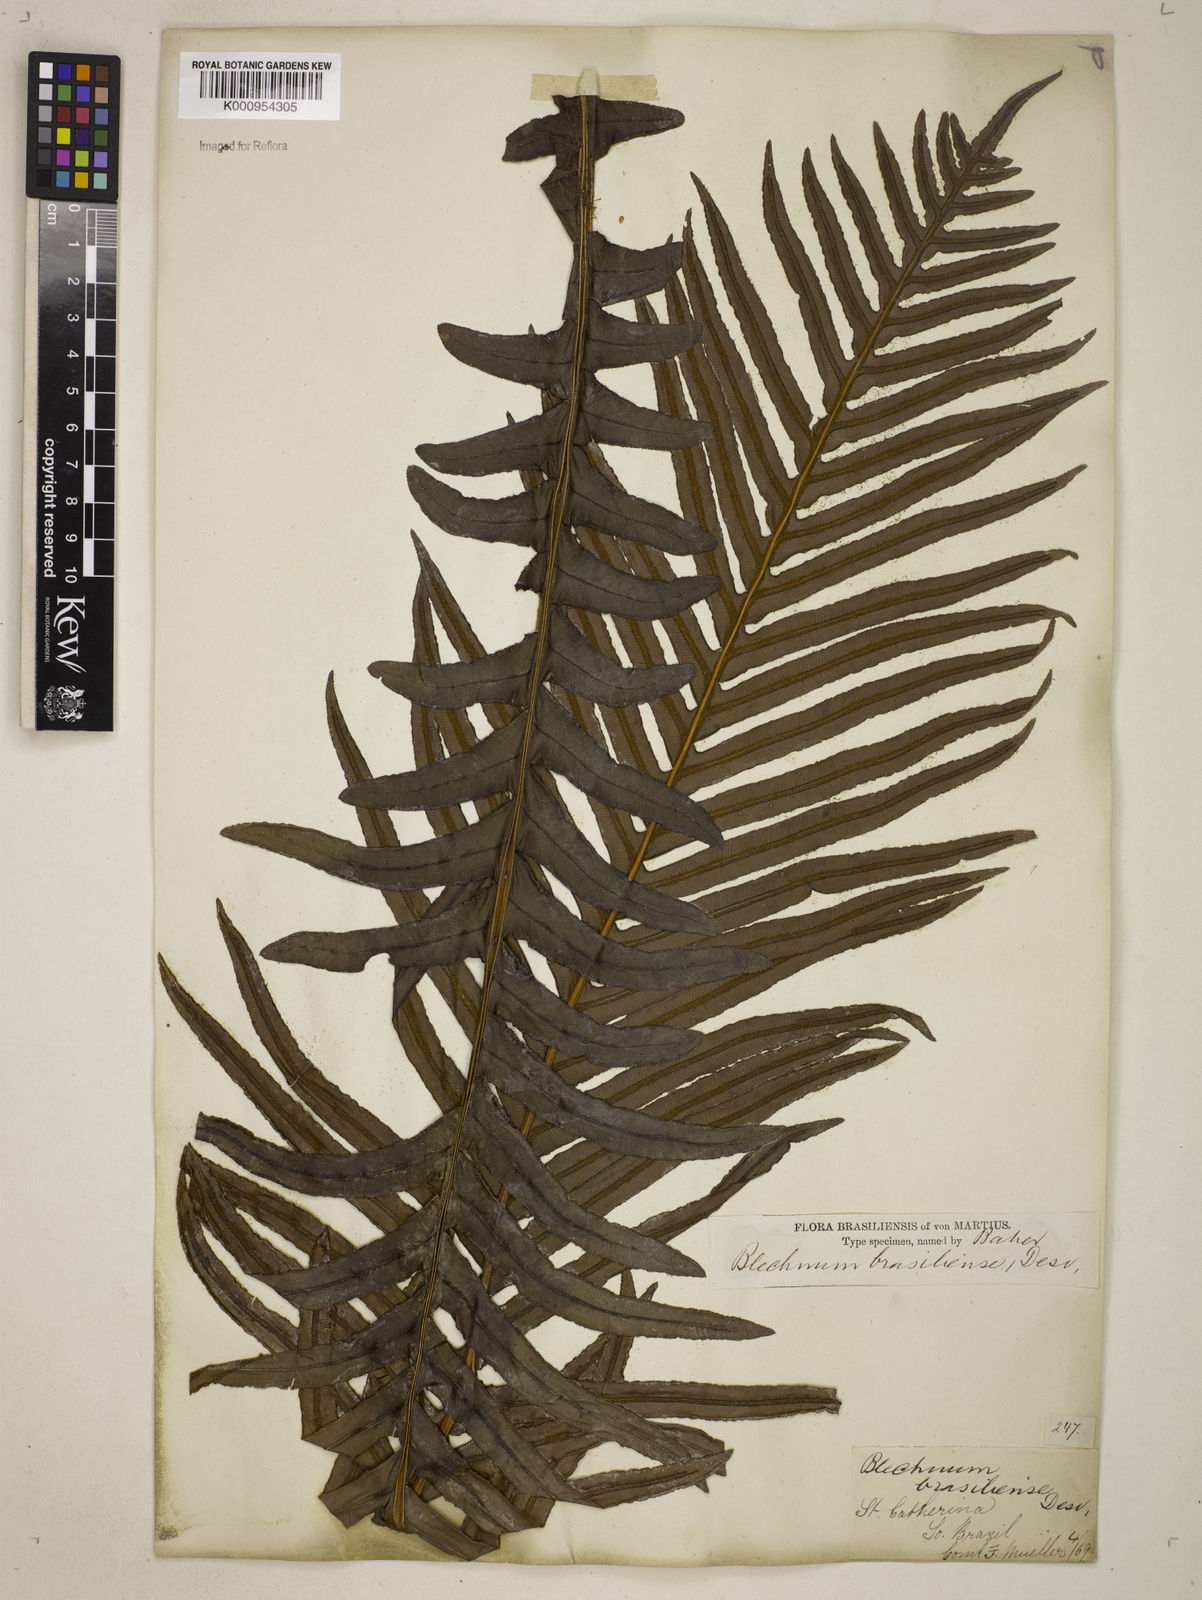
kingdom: Plantae
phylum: Tracheophyta
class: Polypodiopsida
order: Polypodiales
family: Blechnaceae
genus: Neoblechnum
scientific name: Neoblechnum brasiliense
